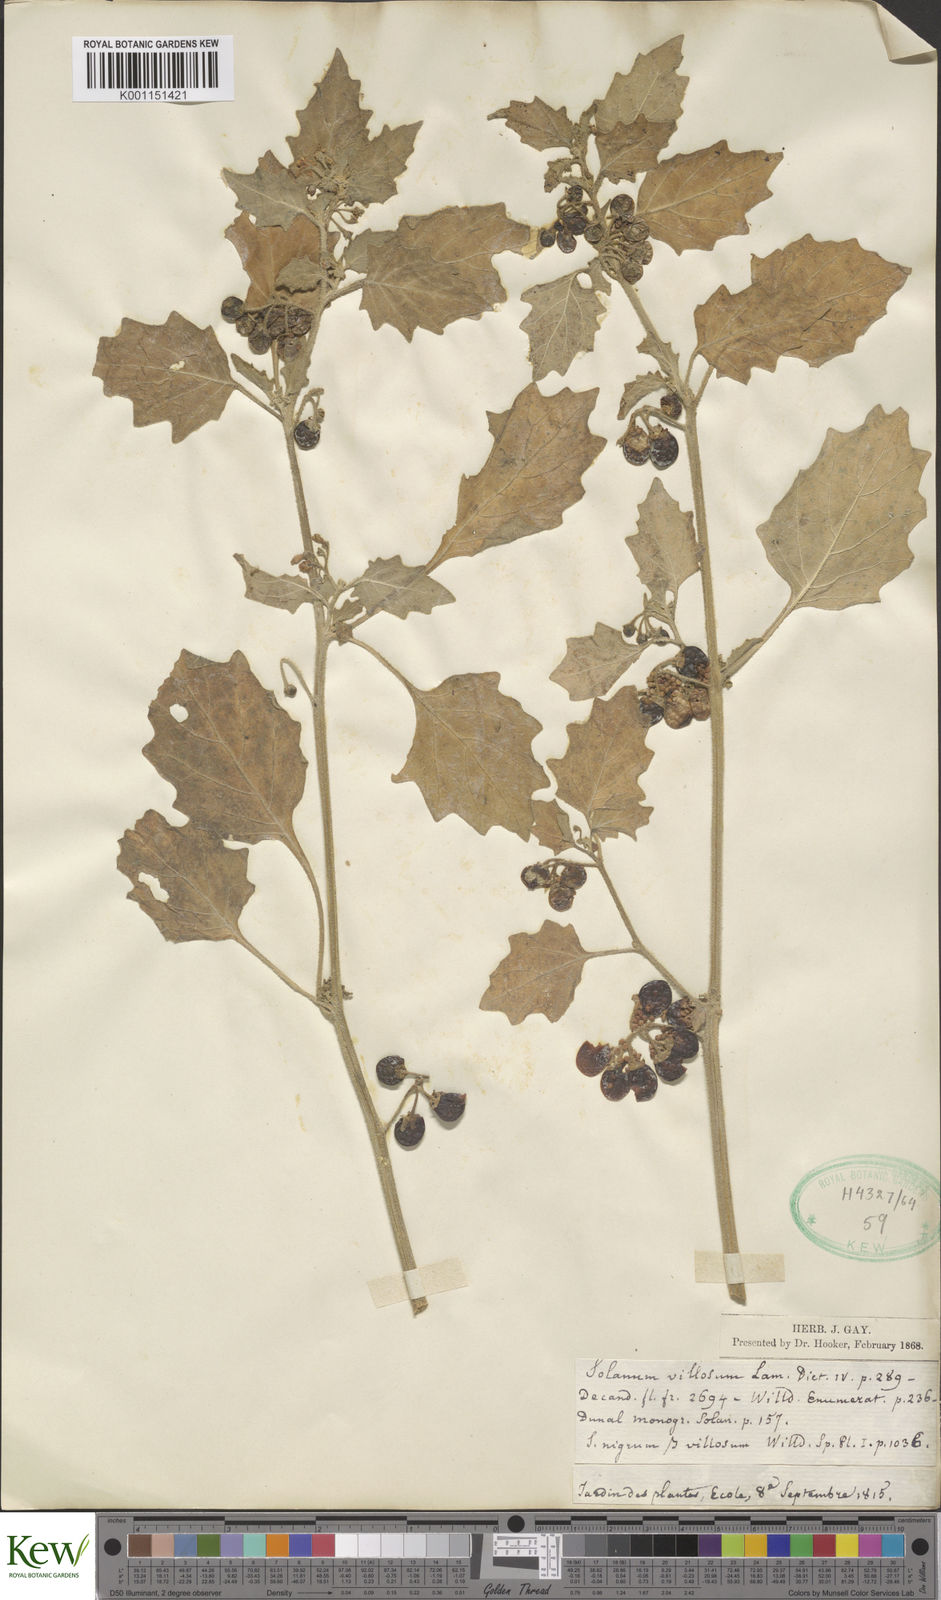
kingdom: Plantae
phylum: Tracheophyta
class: Magnoliopsida
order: Solanales
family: Solanaceae
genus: Solanum
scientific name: Solanum villosum
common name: Red nightshade
